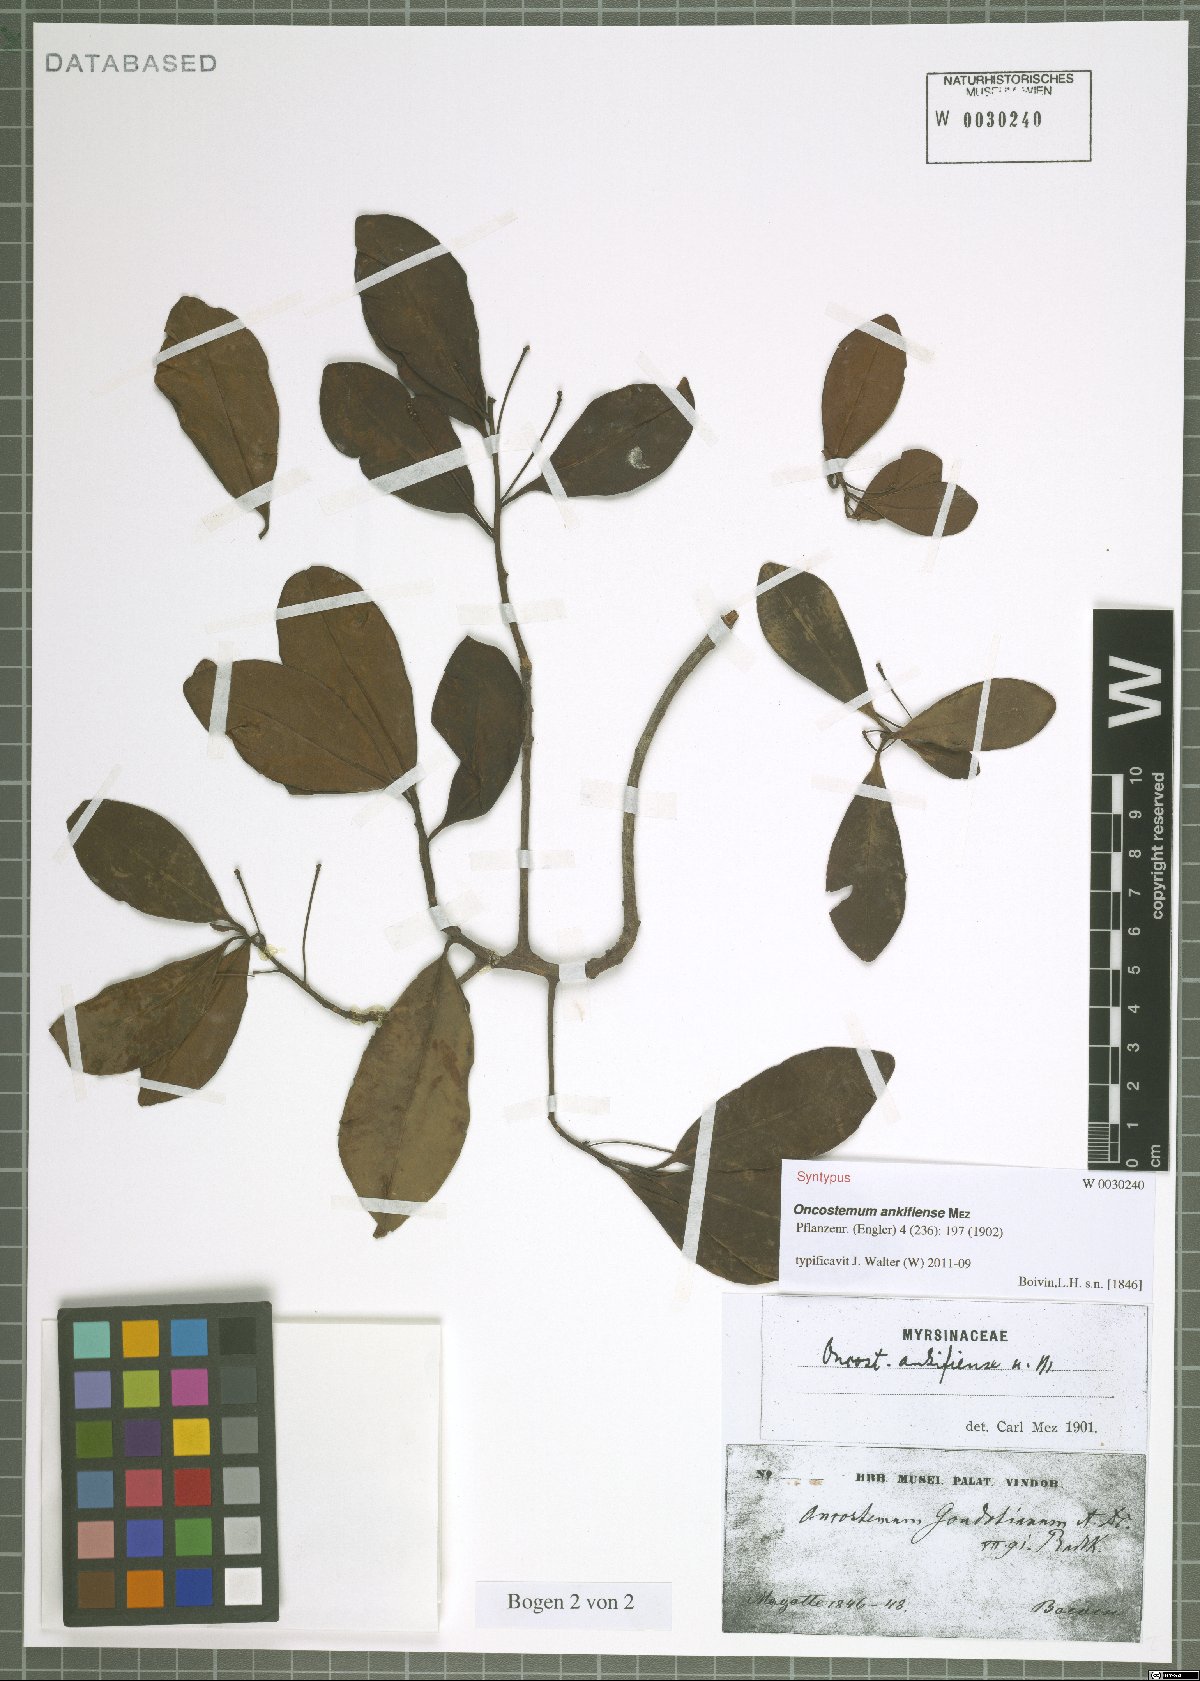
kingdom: Plantae
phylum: Tracheophyta
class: Magnoliopsida
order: Ericales
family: Primulaceae
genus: Oncostemum
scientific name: Oncostemum ankifiense
